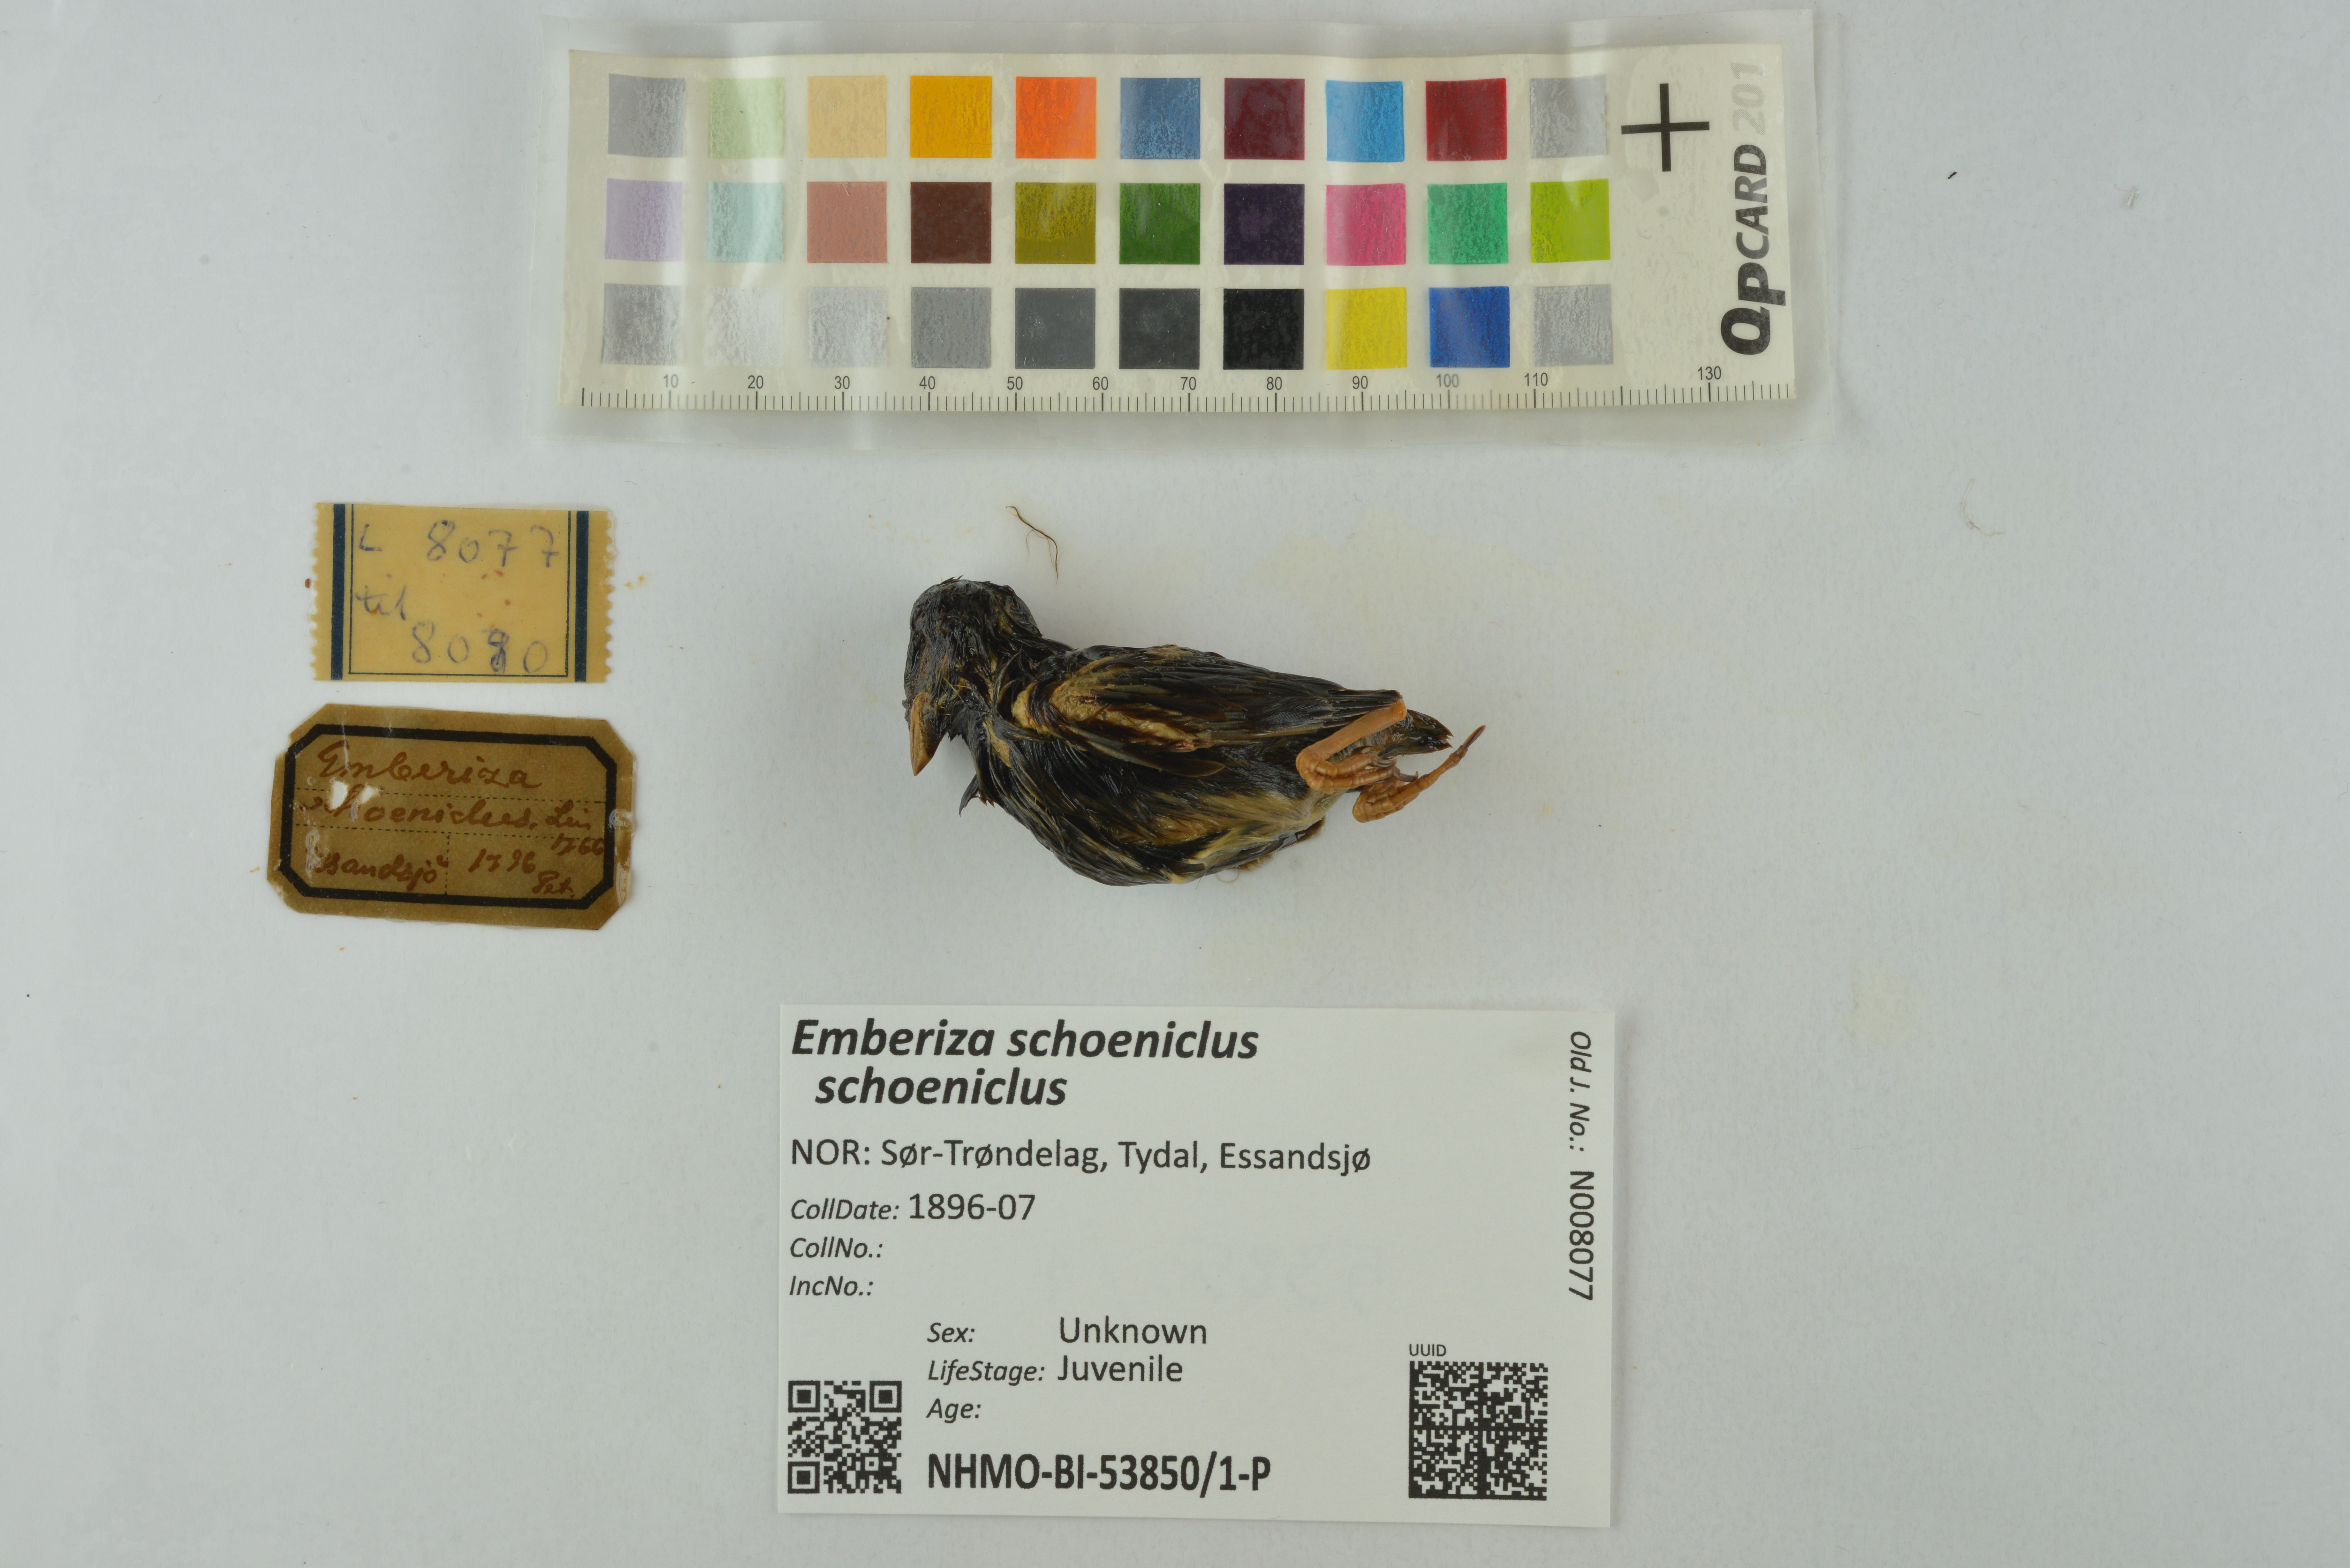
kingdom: Animalia
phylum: Chordata
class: Aves
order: Passeriformes
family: Emberizidae
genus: Emberiza
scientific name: Emberiza schoeniclus
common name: Reed bunting
